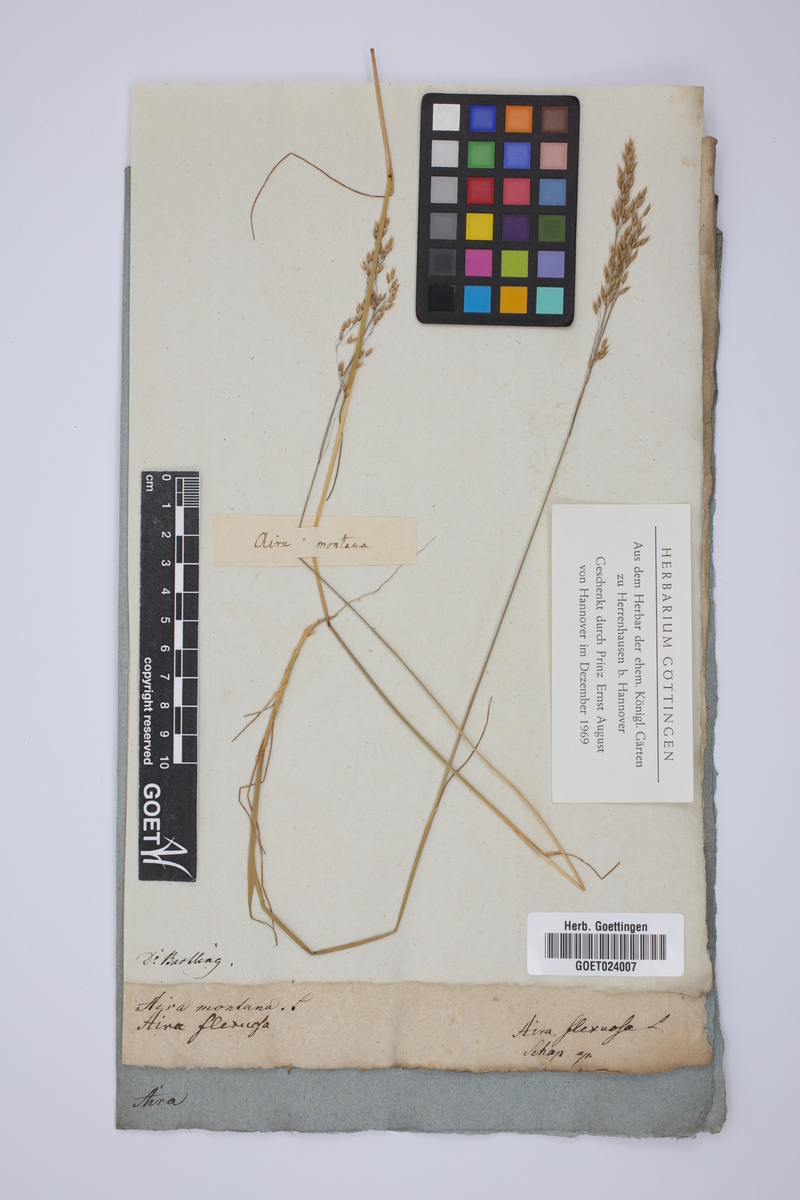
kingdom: Plantae
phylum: Tracheophyta
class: Liliopsida
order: Poales
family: Poaceae
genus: Avenella
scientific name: Avenella flexuosa
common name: Wavy hairgrass
